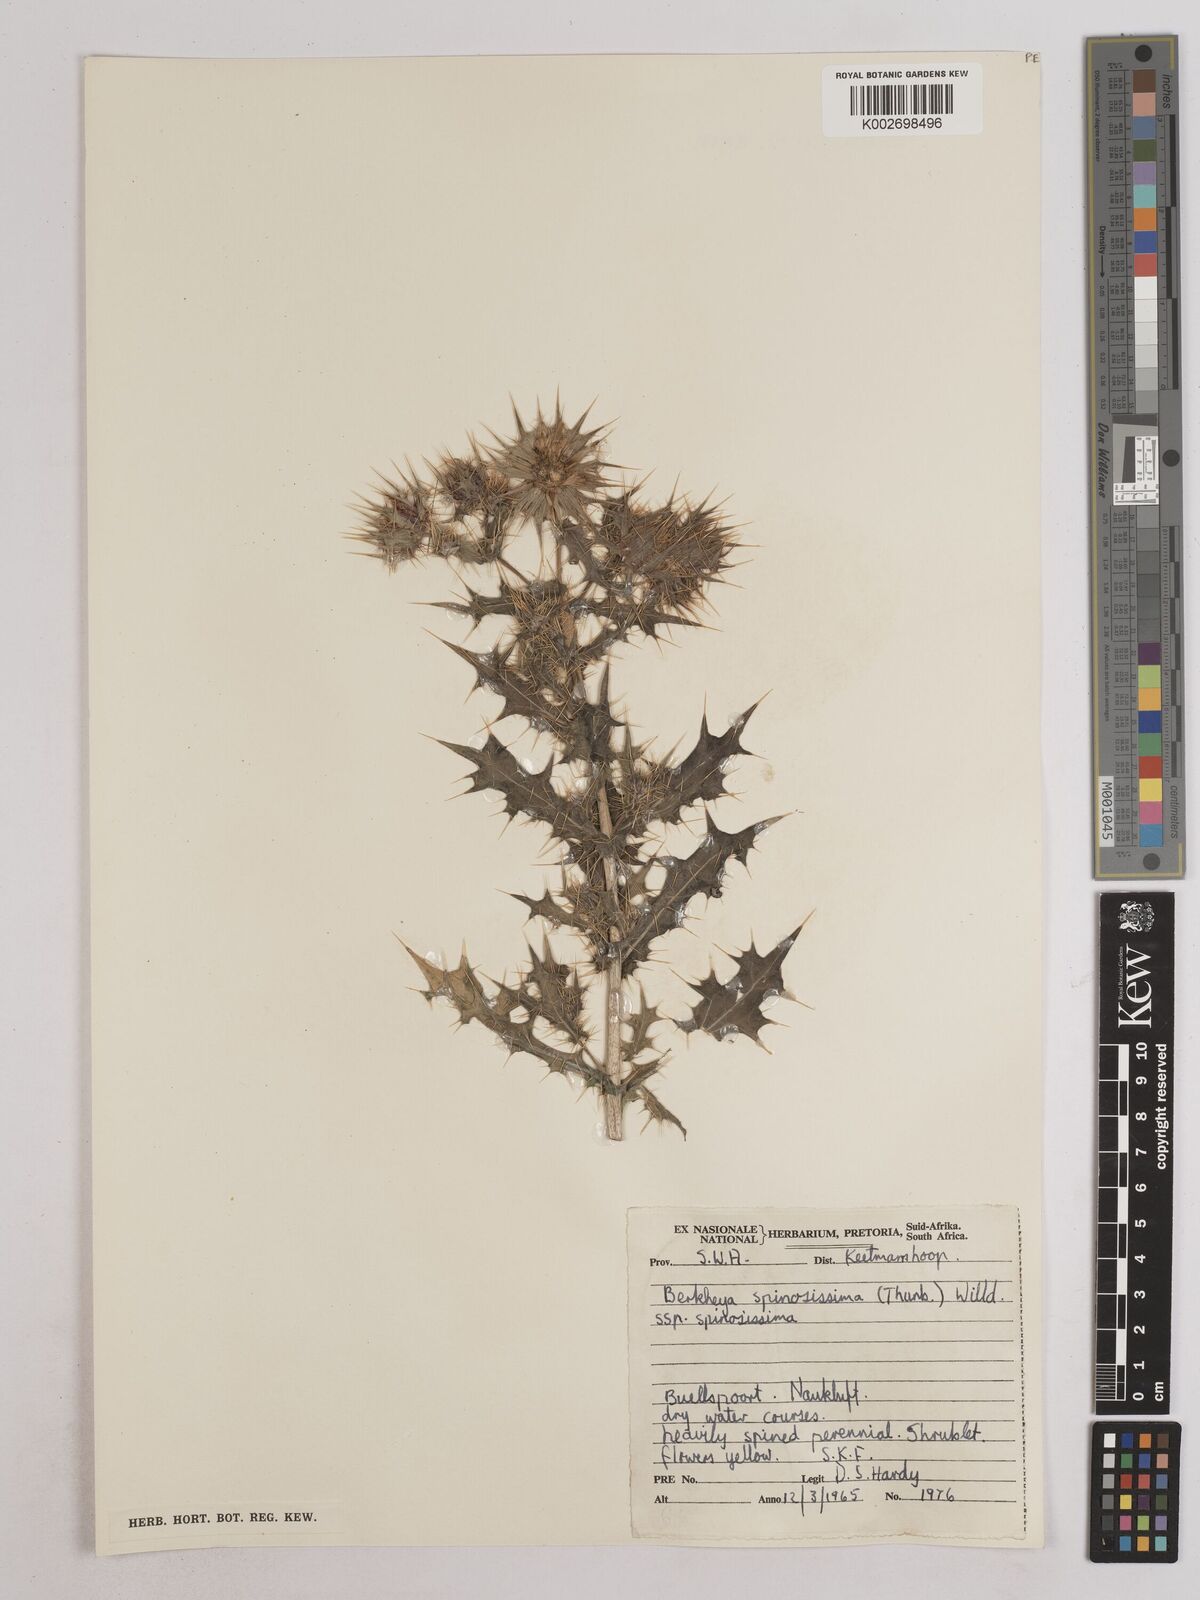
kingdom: Plantae
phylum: Tracheophyta
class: Magnoliopsida
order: Asterales
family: Asteraceae
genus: Berkheya
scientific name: Berkheya spinosissima
